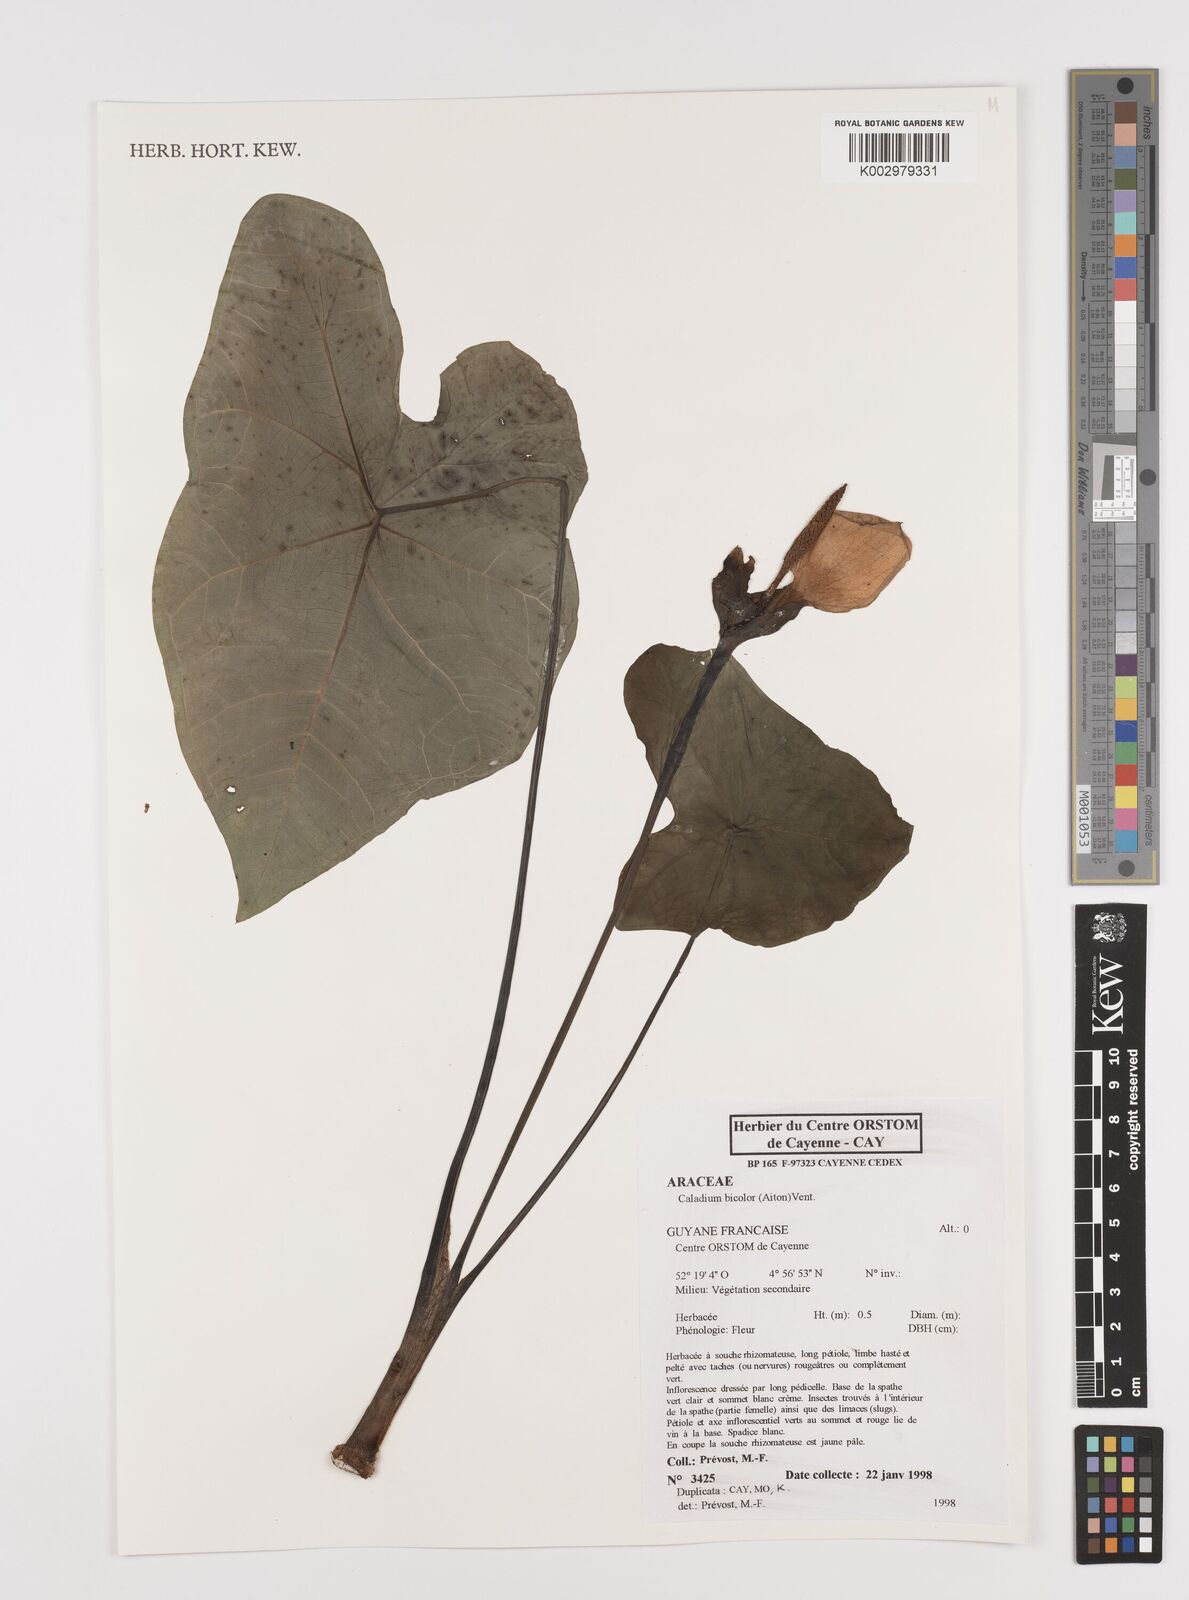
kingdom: Plantae
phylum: Tracheophyta
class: Liliopsida
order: Alismatales
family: Araceae
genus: Caladium
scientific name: Caladium bicolor
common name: Artist's pallet
